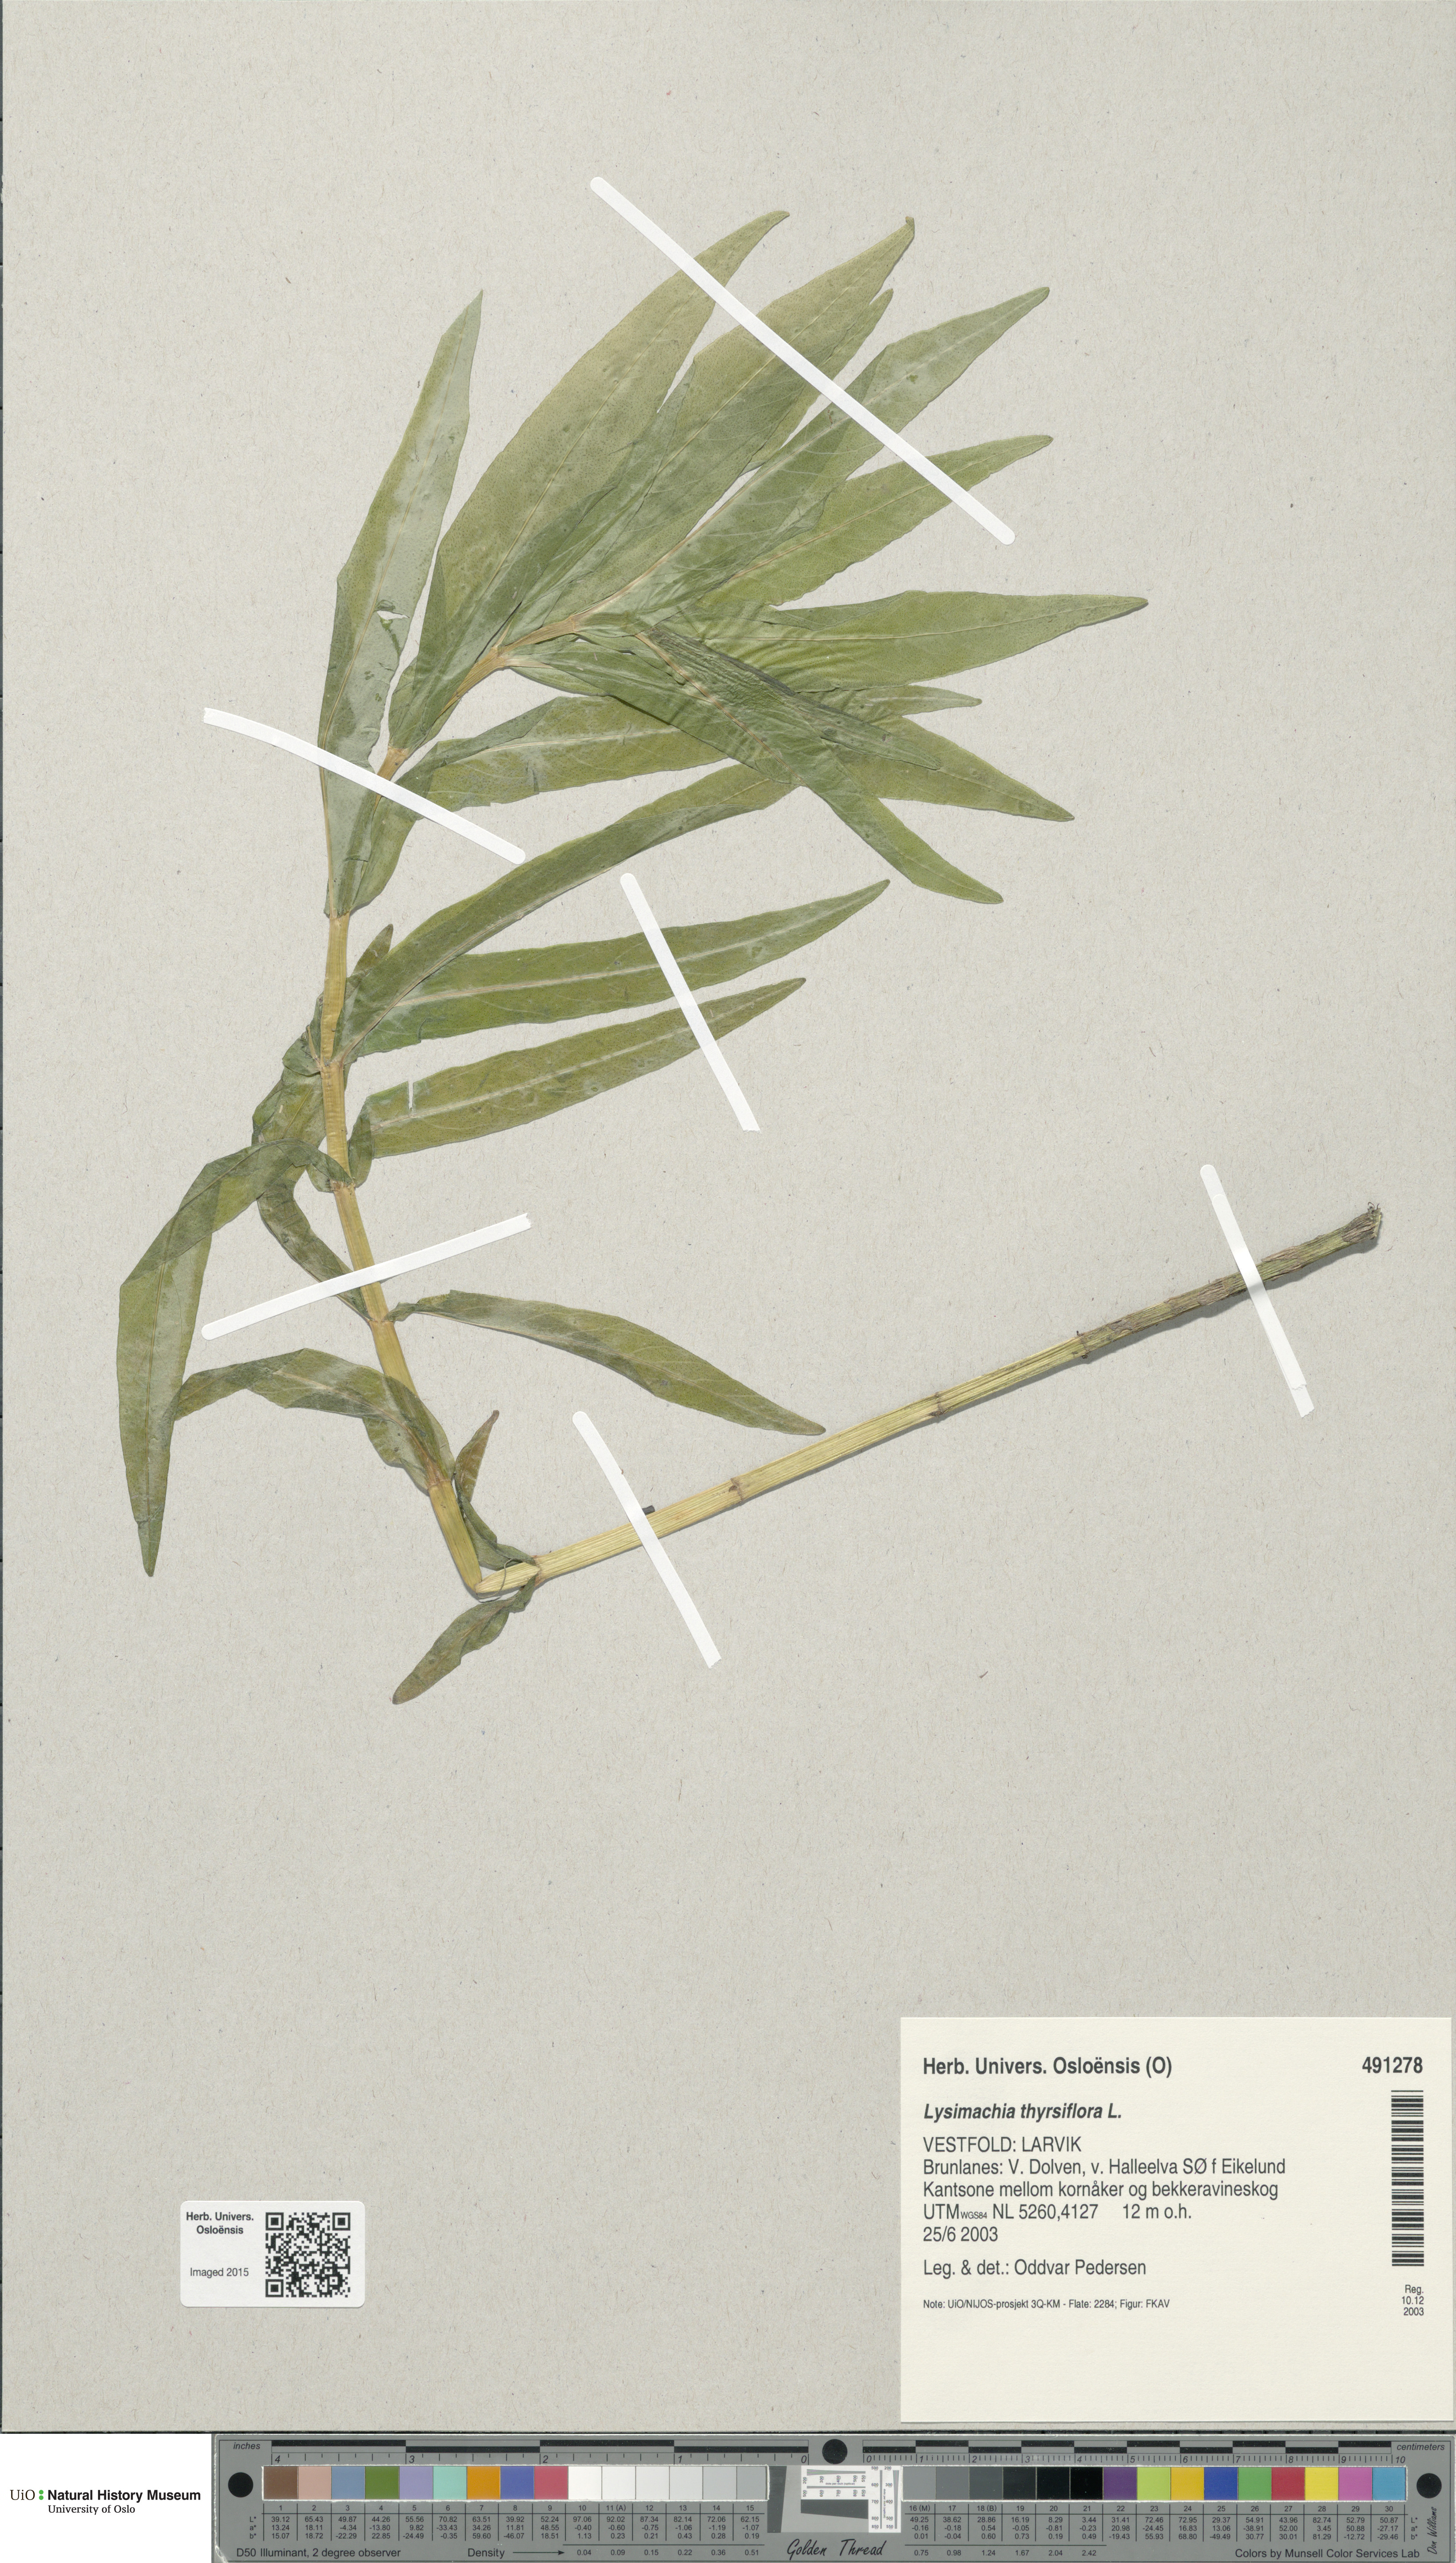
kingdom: Plantae
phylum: Tracheophyta
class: Magnoliopsida
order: Ericales
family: Primulaceae
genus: Lysimachia
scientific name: Lysimachia thyrsiflora
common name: Tufted loosestrife
